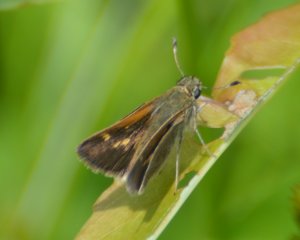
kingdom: Animalia
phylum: Arthropoda
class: Insecta
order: Lepidoptera
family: Hesperiidae
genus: Polites
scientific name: Polites themistocles
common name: Tawny-edged Skipper
